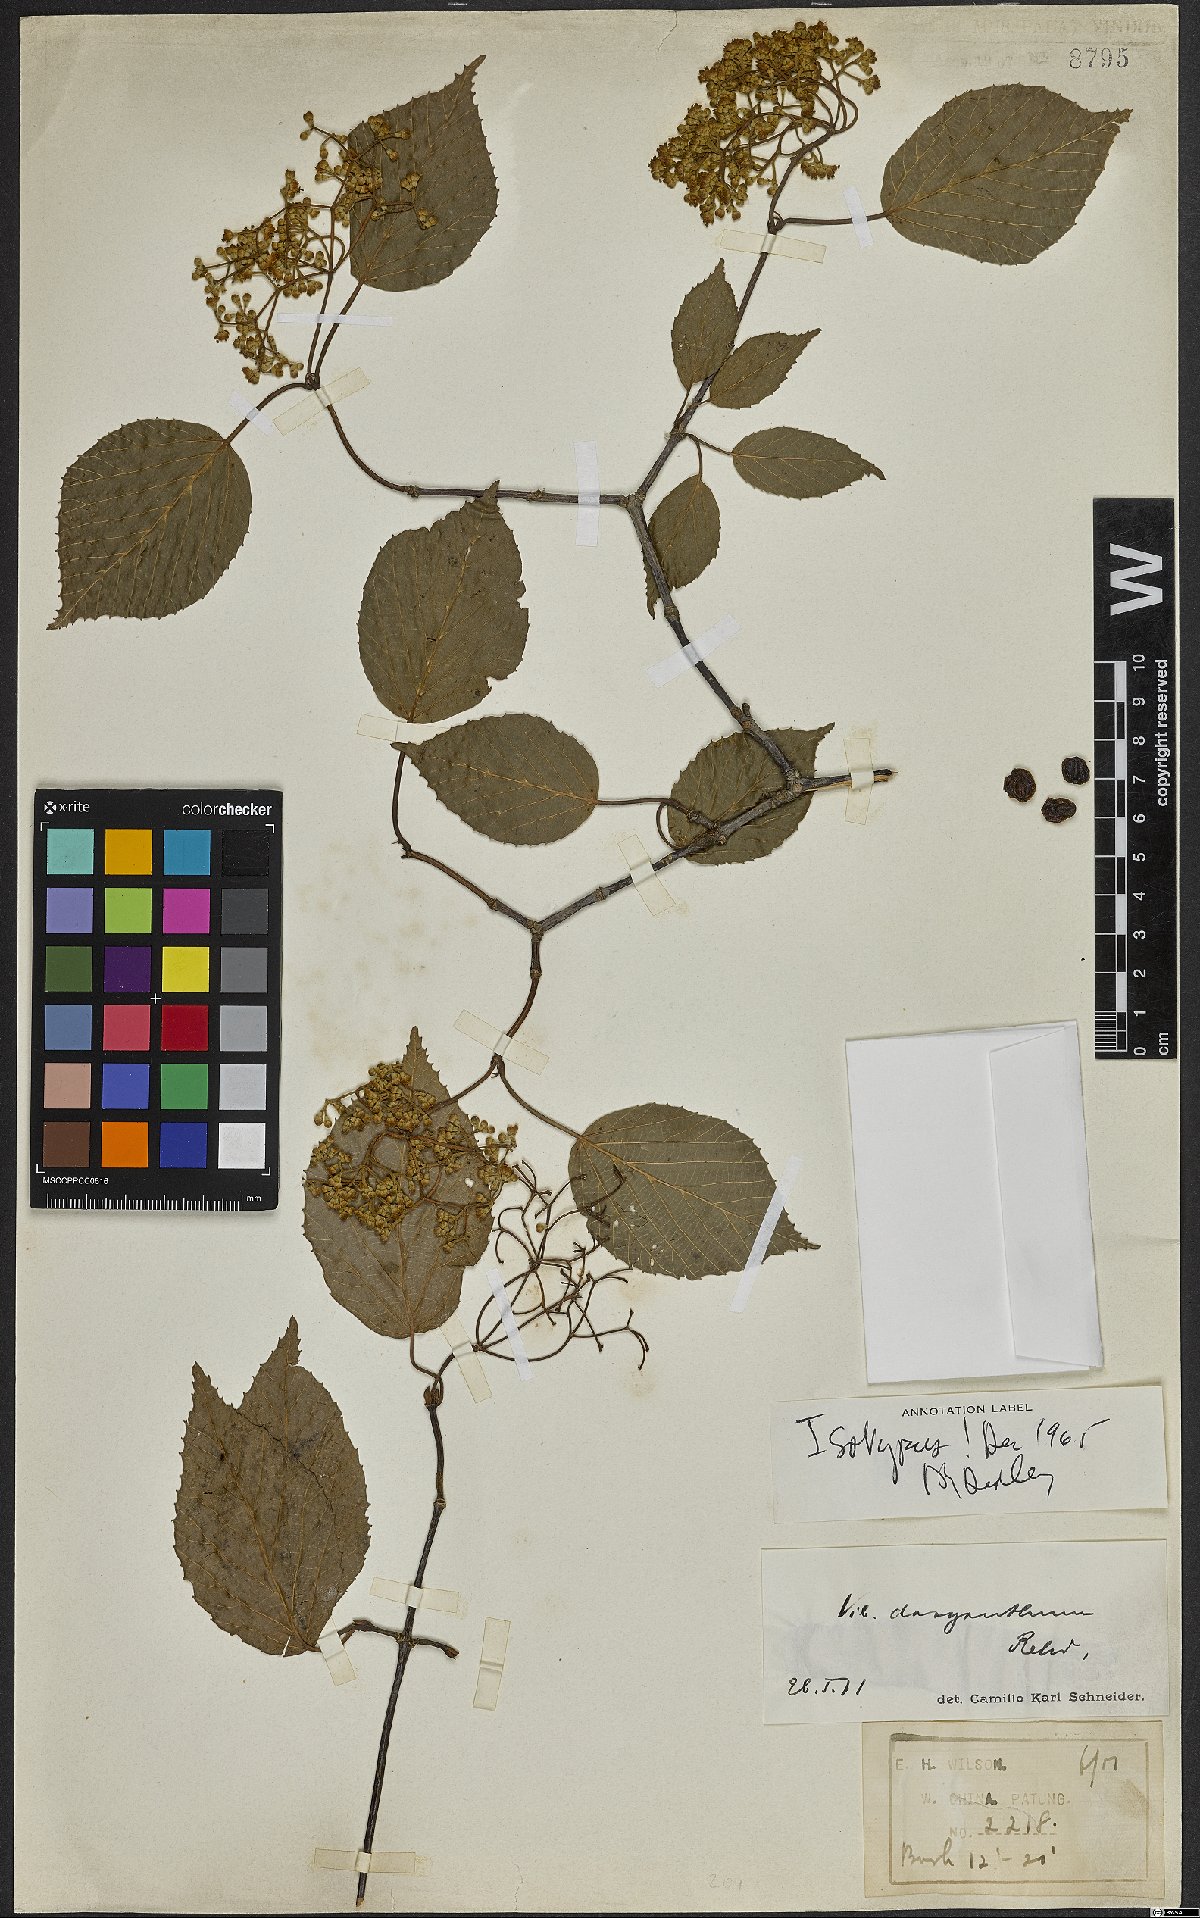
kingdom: Plantae
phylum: Tracheophyta
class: Magnoliopsida
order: Dipsacales
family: Viburnaceae
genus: Viburnum
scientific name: Viburnum betulifolium
